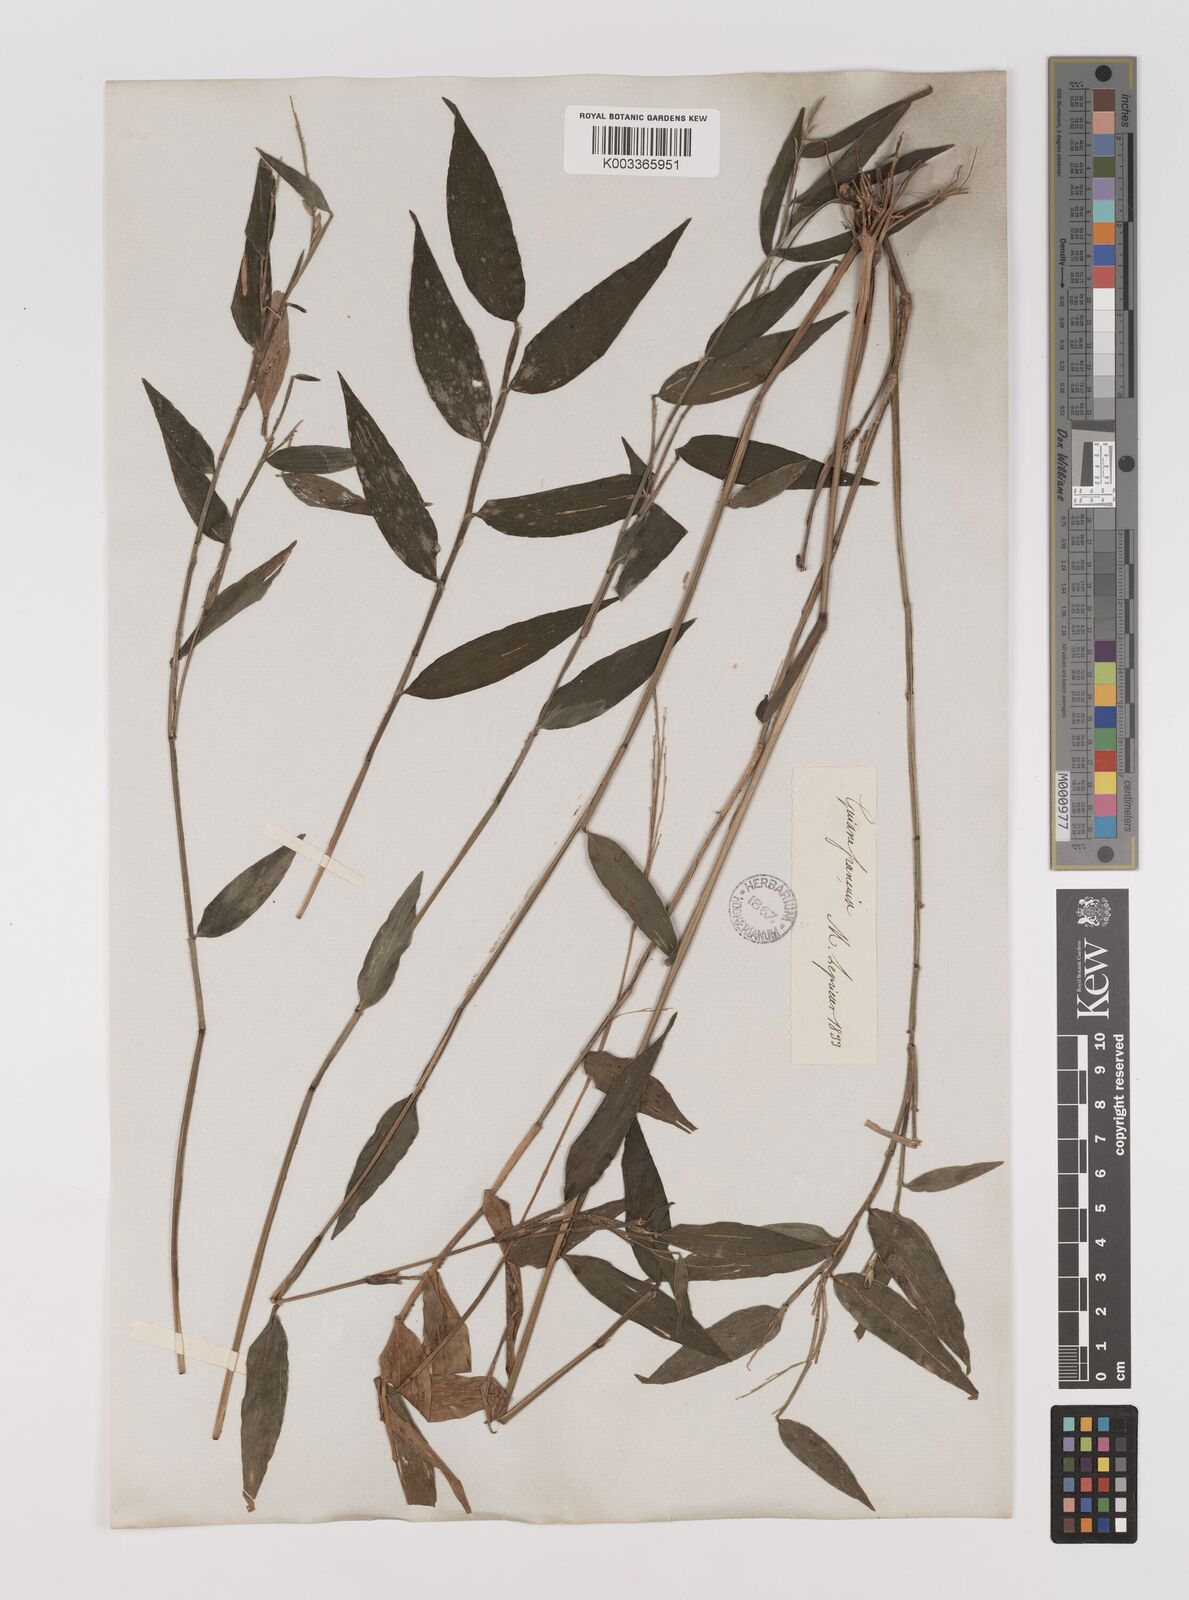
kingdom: Plantae
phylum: Tracheophyta
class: Liliopsida
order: Poales
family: Poaceae
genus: Ichnanthus
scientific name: Ichnanthus nemoralis
